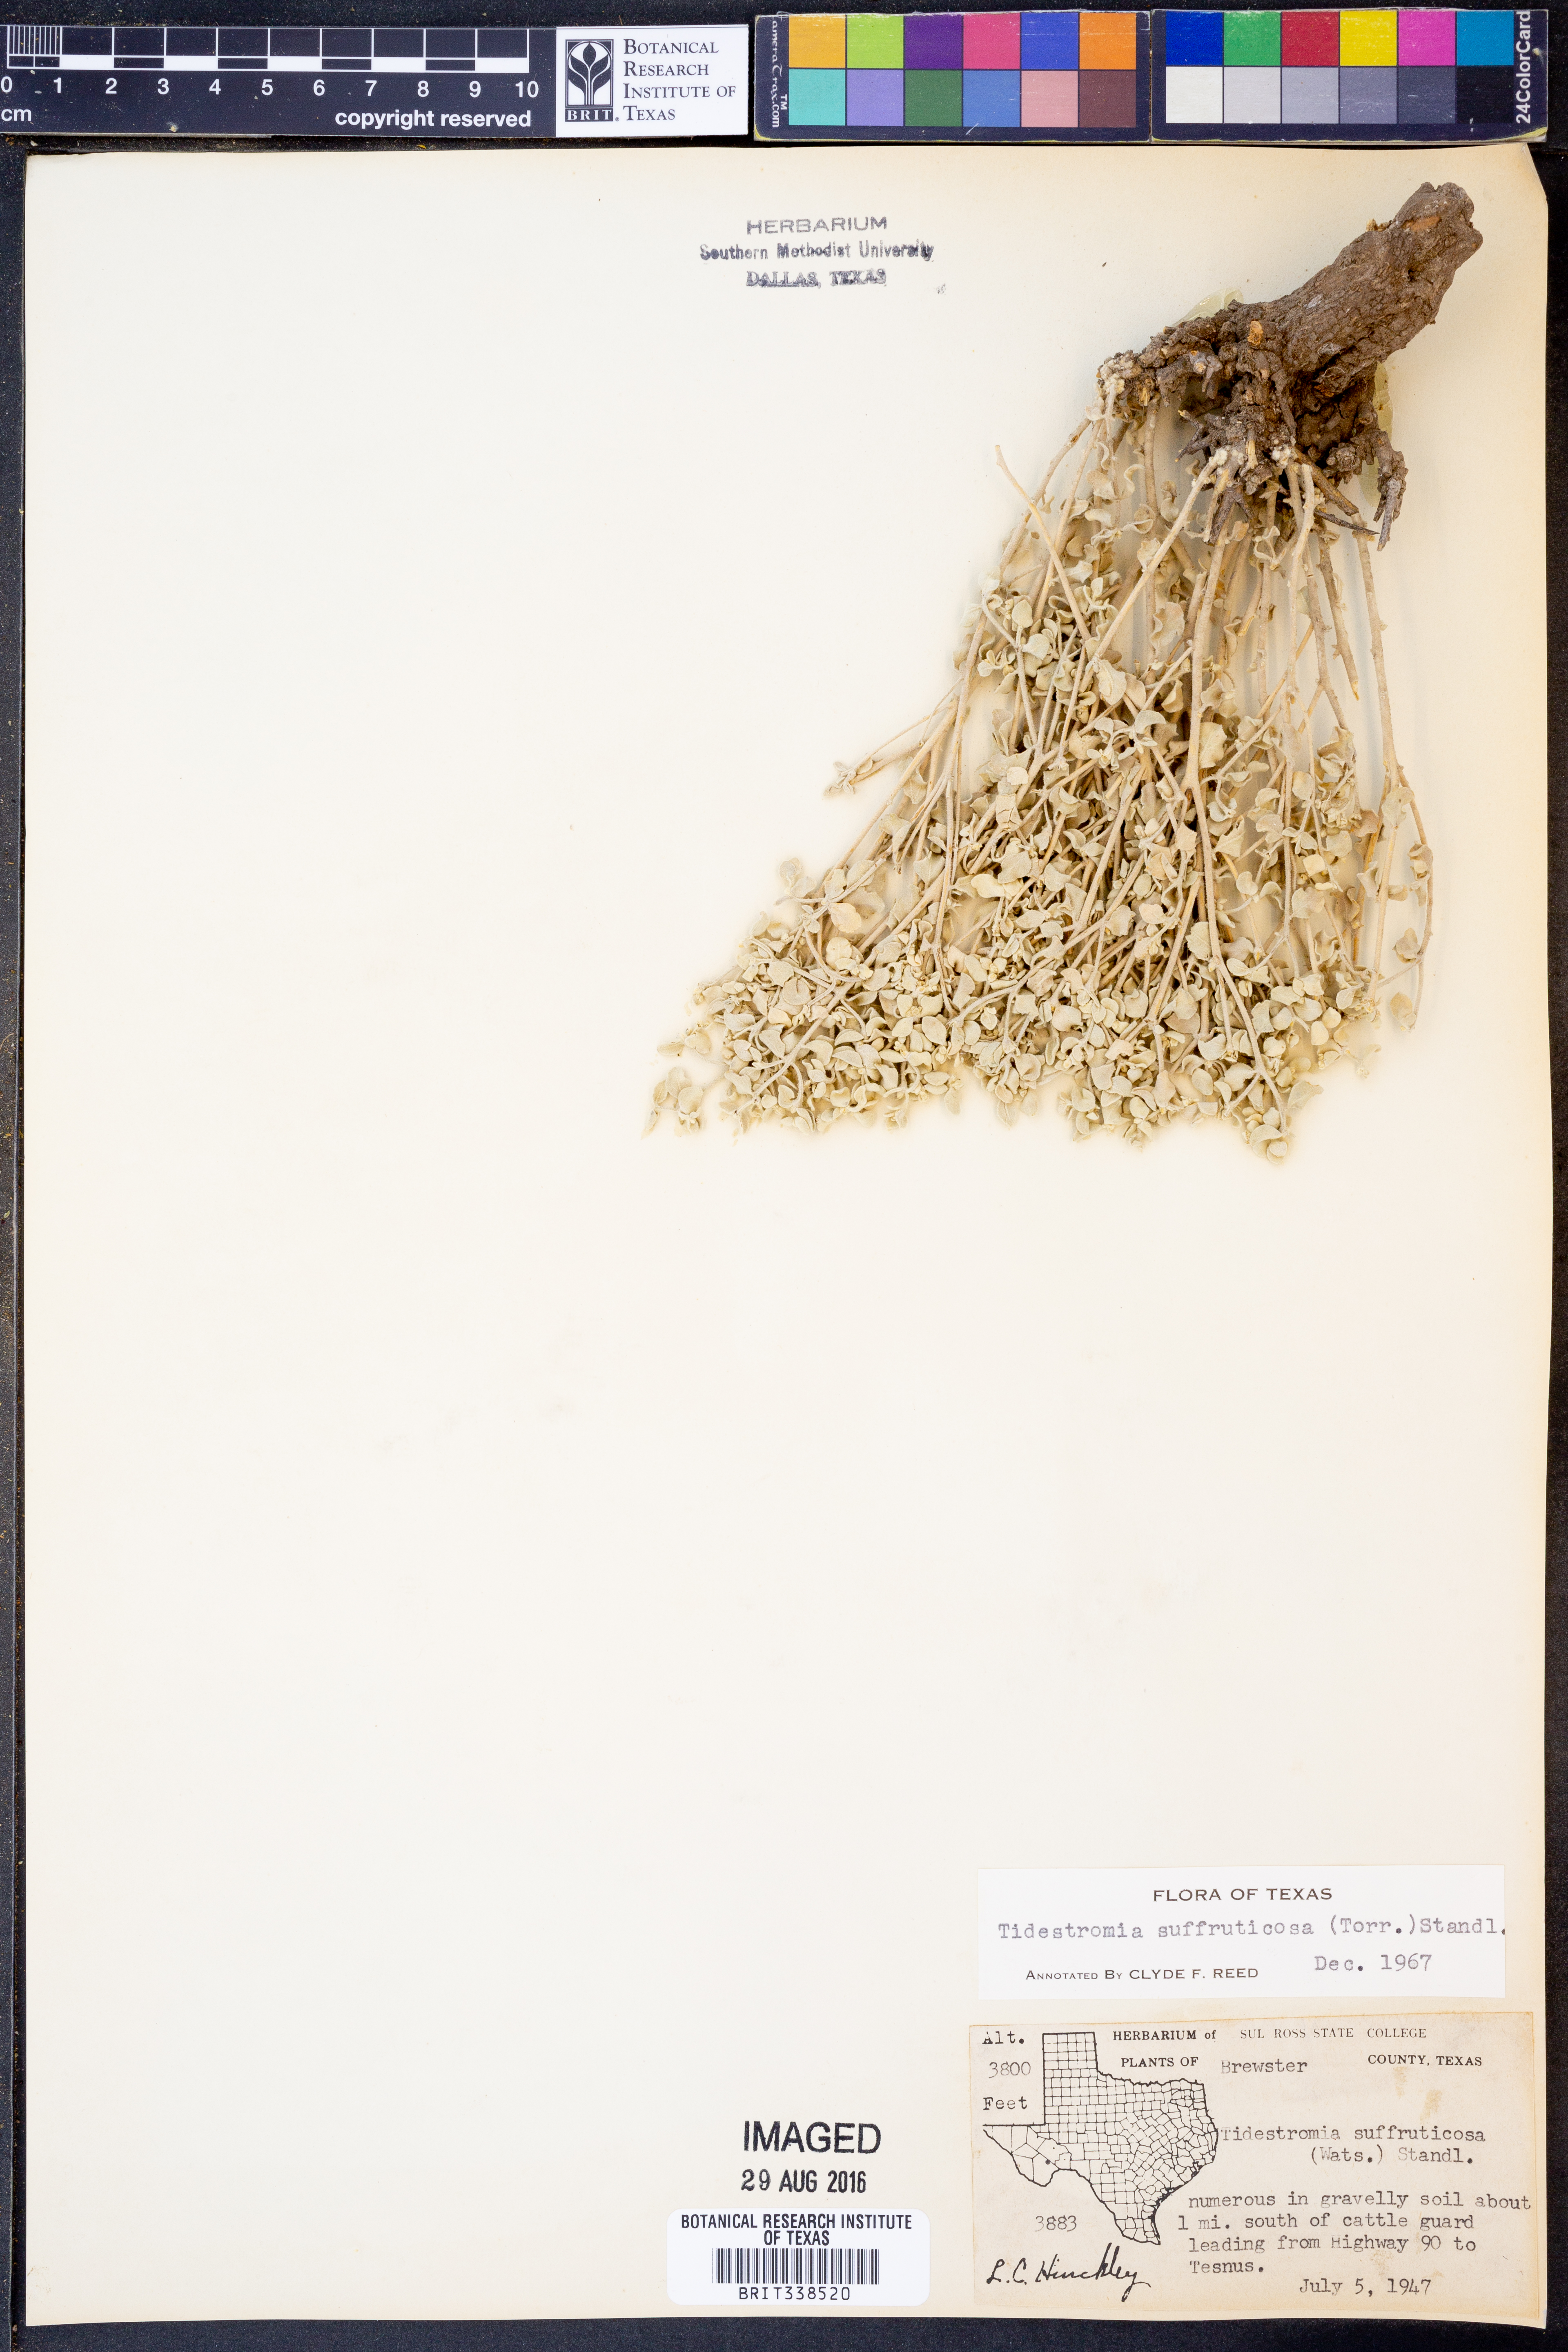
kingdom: Plantae
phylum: Tracheophyta
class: Magnoliopsida
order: Caryophyllales
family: Amaranthaceae
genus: Tidestromia
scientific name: Tidestromia suffruticosa
